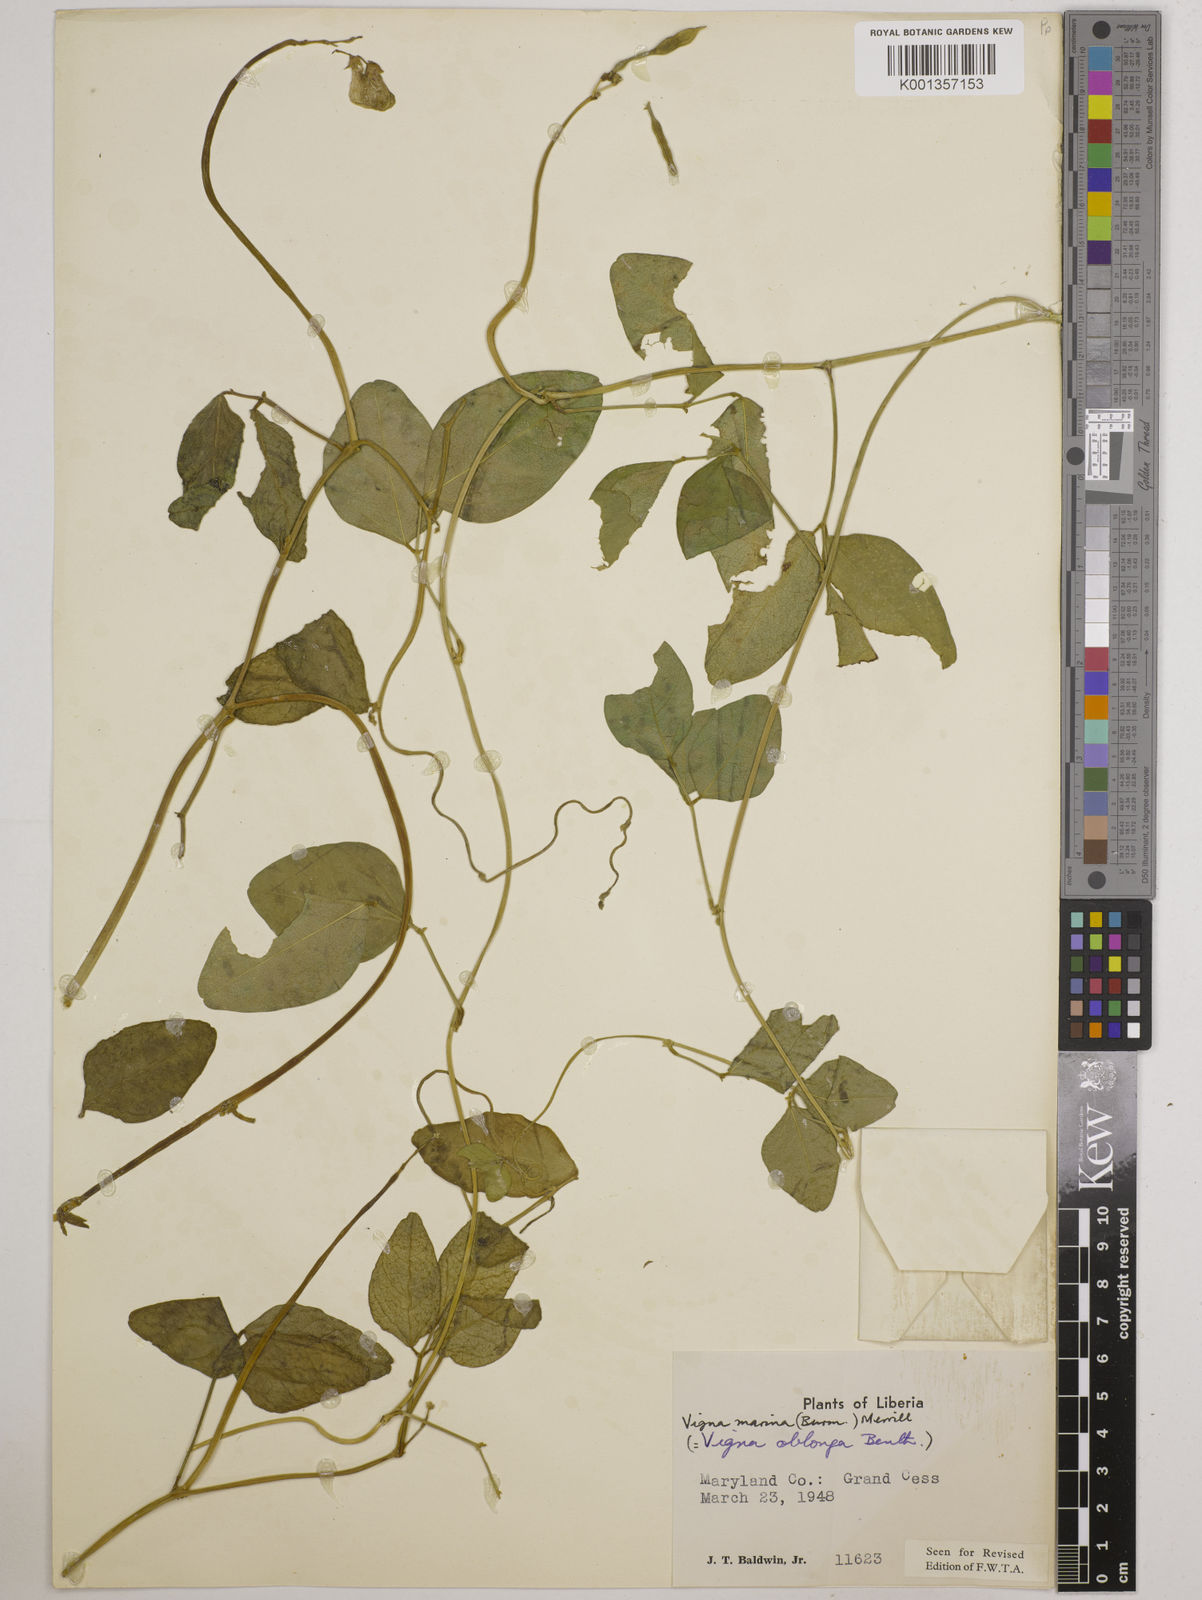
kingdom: Plantae
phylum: Tracheophyta
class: Magnoliopsida
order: Fabales
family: Fabaceae
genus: Vigna
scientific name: Vigna marina
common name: Dune-bean
